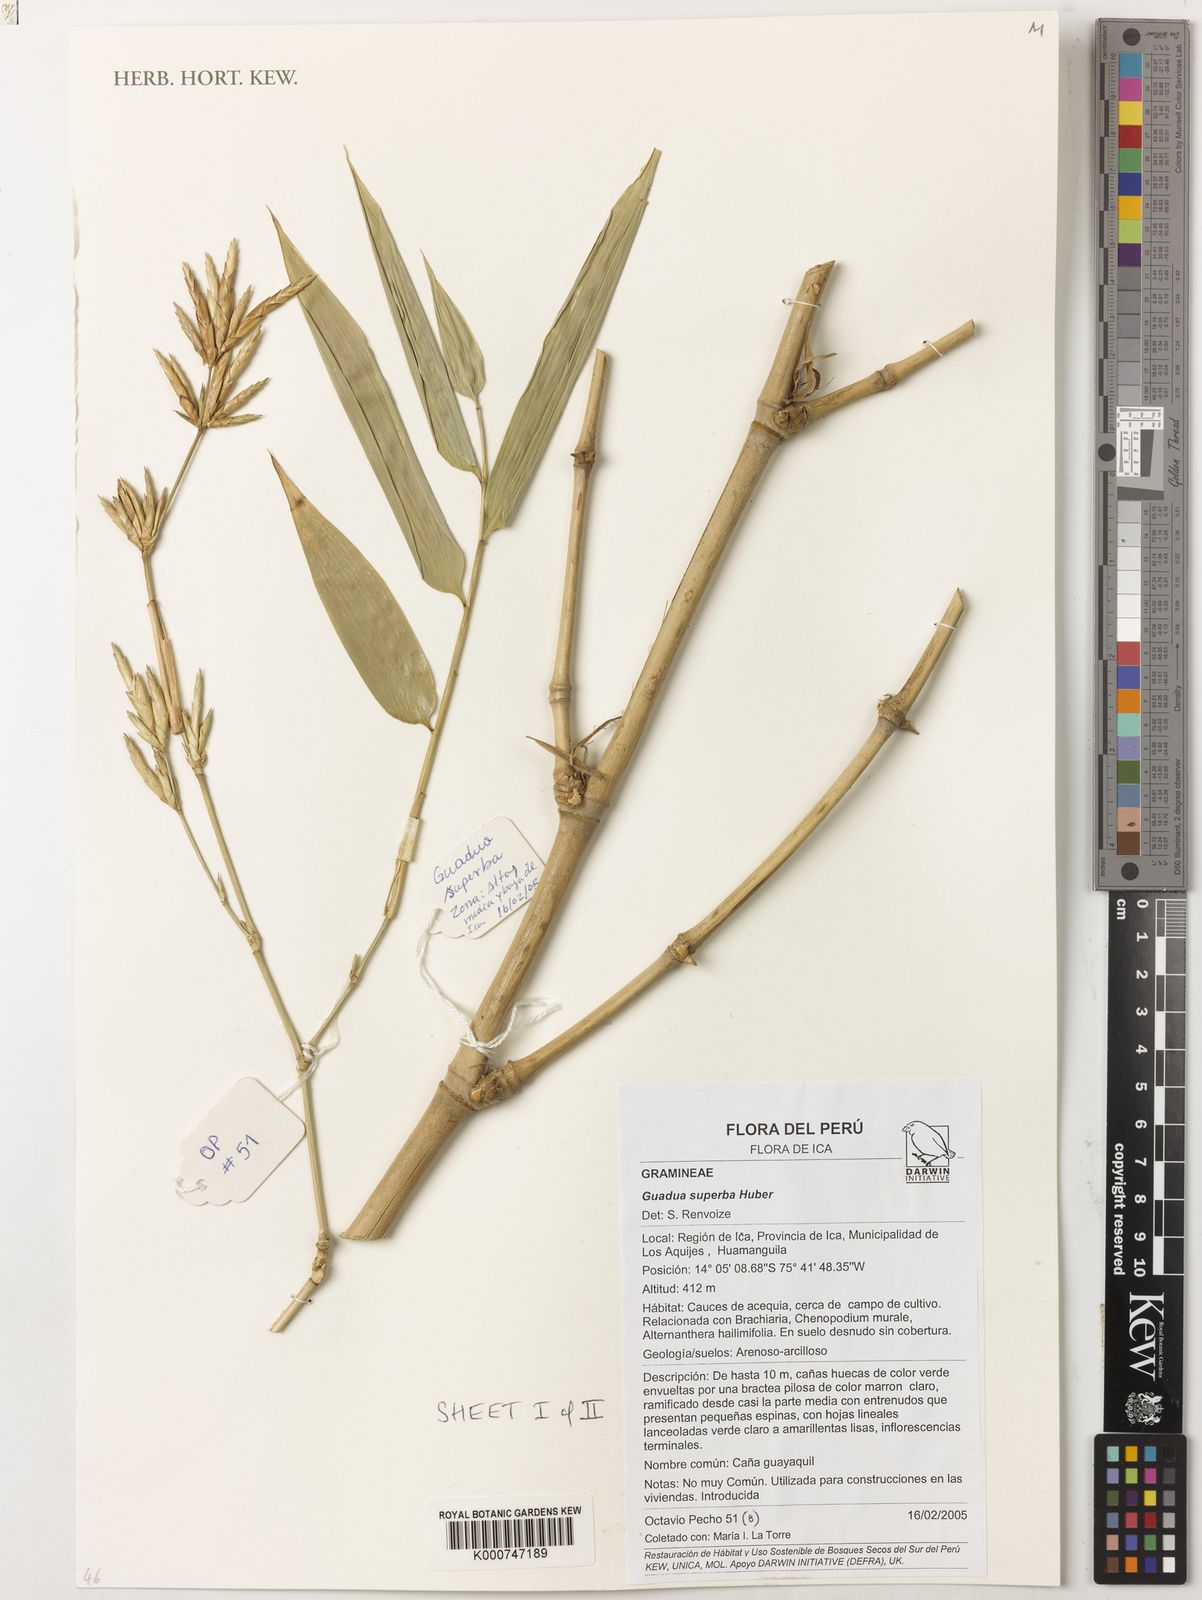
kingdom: Plantae
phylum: Tracheophyta
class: Liliopsida
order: Poales
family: Poaceae
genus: Guadua
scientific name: Guadua angustifolia
